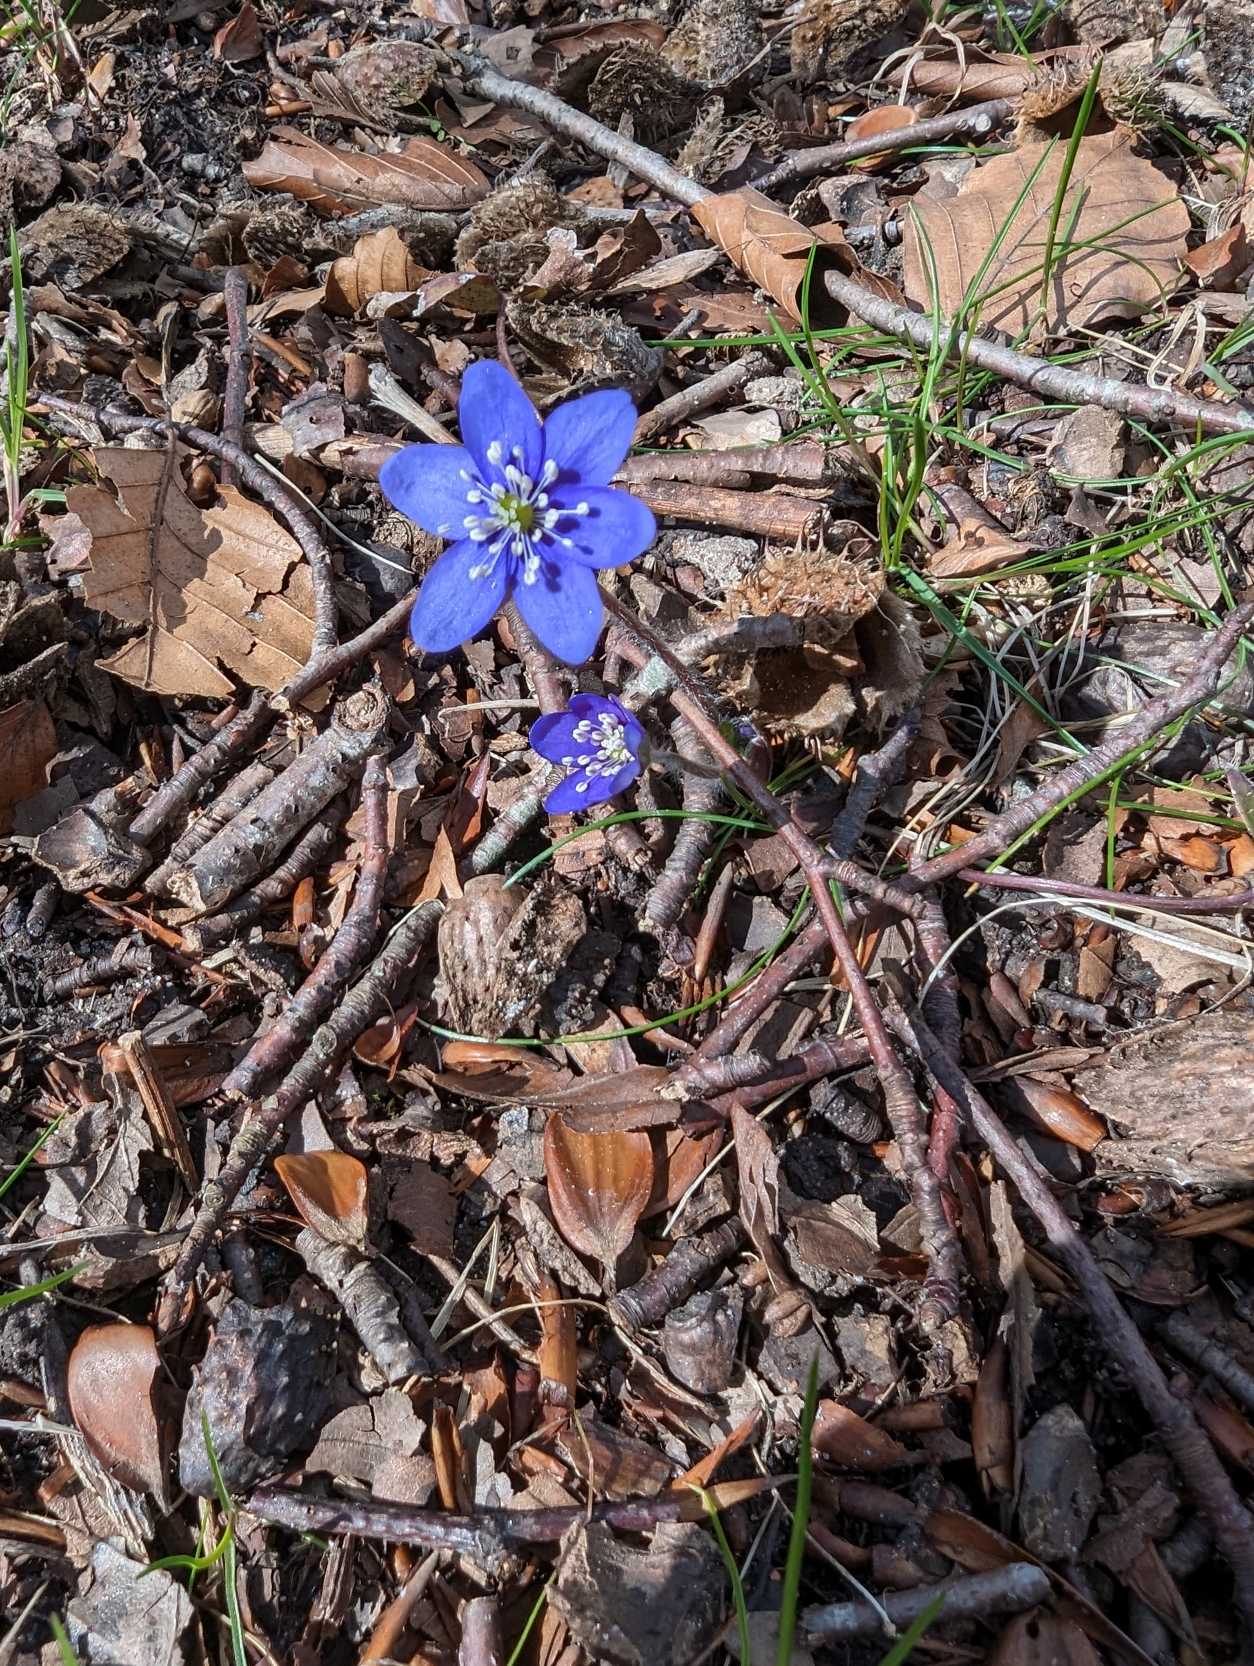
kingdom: Plantae
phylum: Tracheophyta
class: Magnoliopsida
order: Ranunculales
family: Ranunculaceae
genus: Hepatica
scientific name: Hepatica nobilis
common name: Blå anemone
